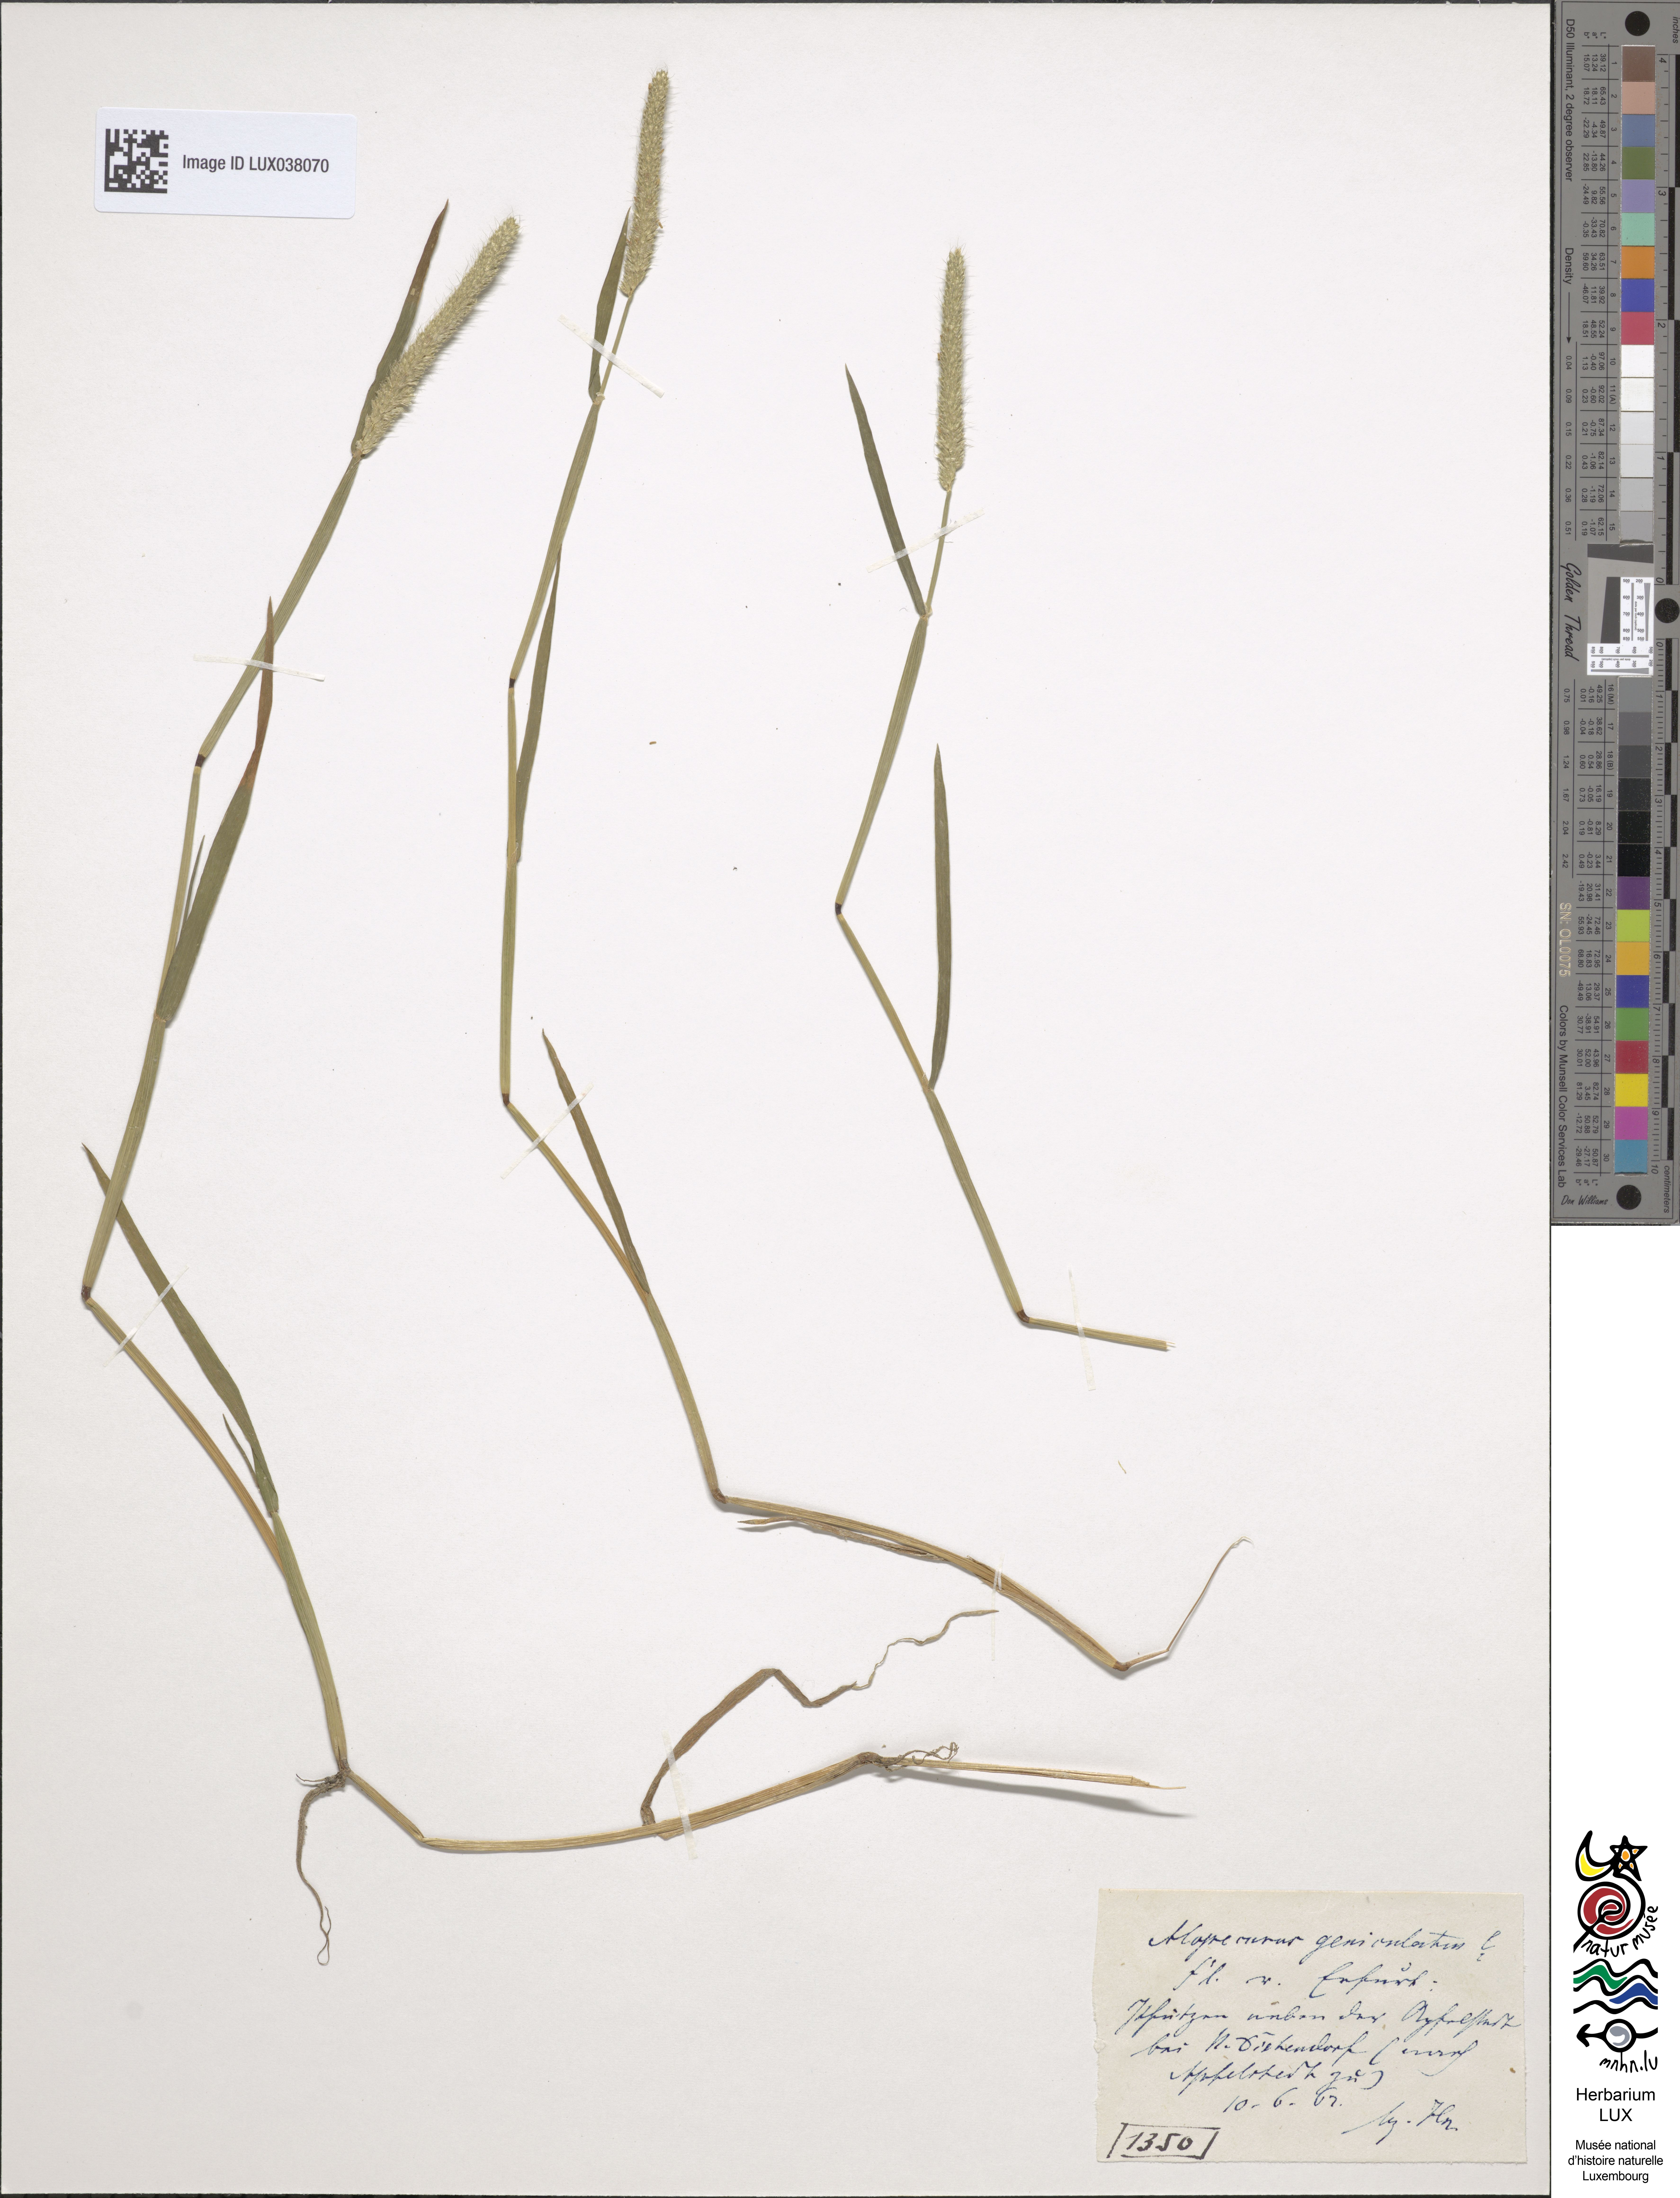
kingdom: Plantae
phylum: Tracheophyta
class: Liliopsida
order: Poales
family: Poaceae
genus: Alopecurus
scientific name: Alopecurus geniculatus
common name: Water foxtail
